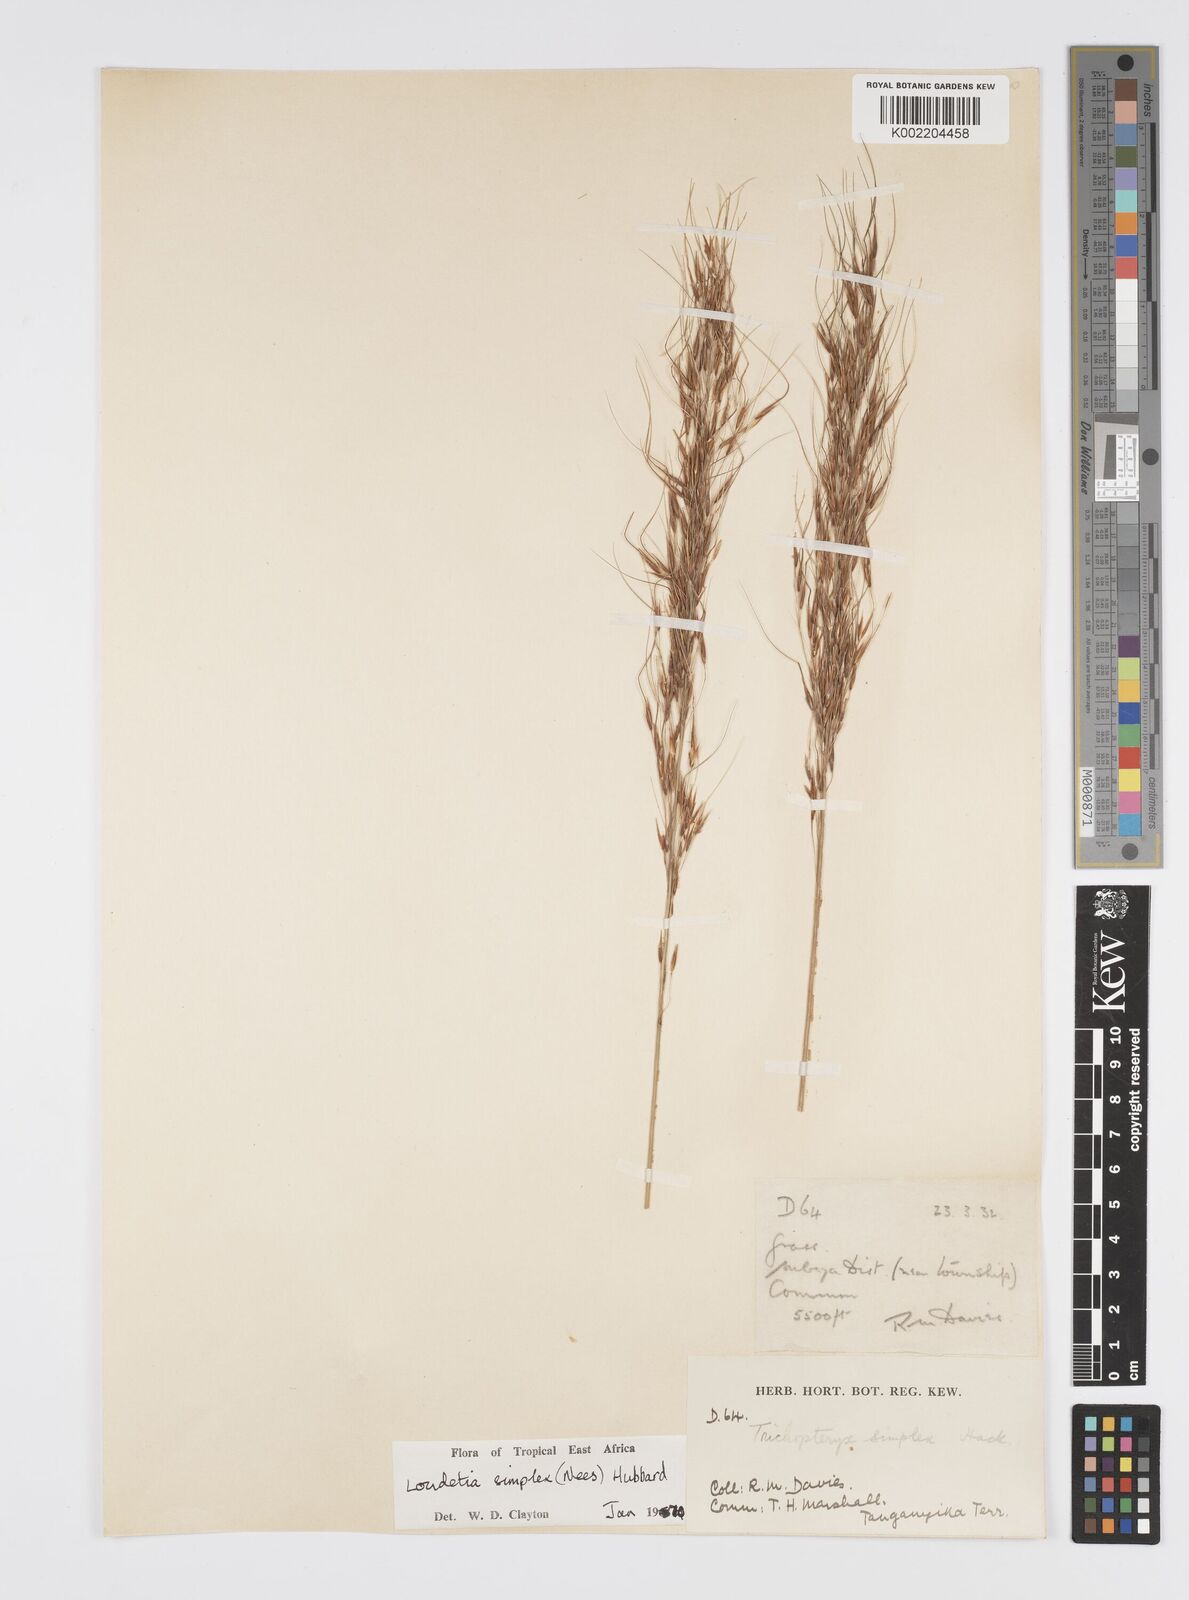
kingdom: Plantae
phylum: Tracheophyta
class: Liliopsida
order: Poales
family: Poaceae
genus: Loudetia
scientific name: Loudetia simplex
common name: Common russet grass
